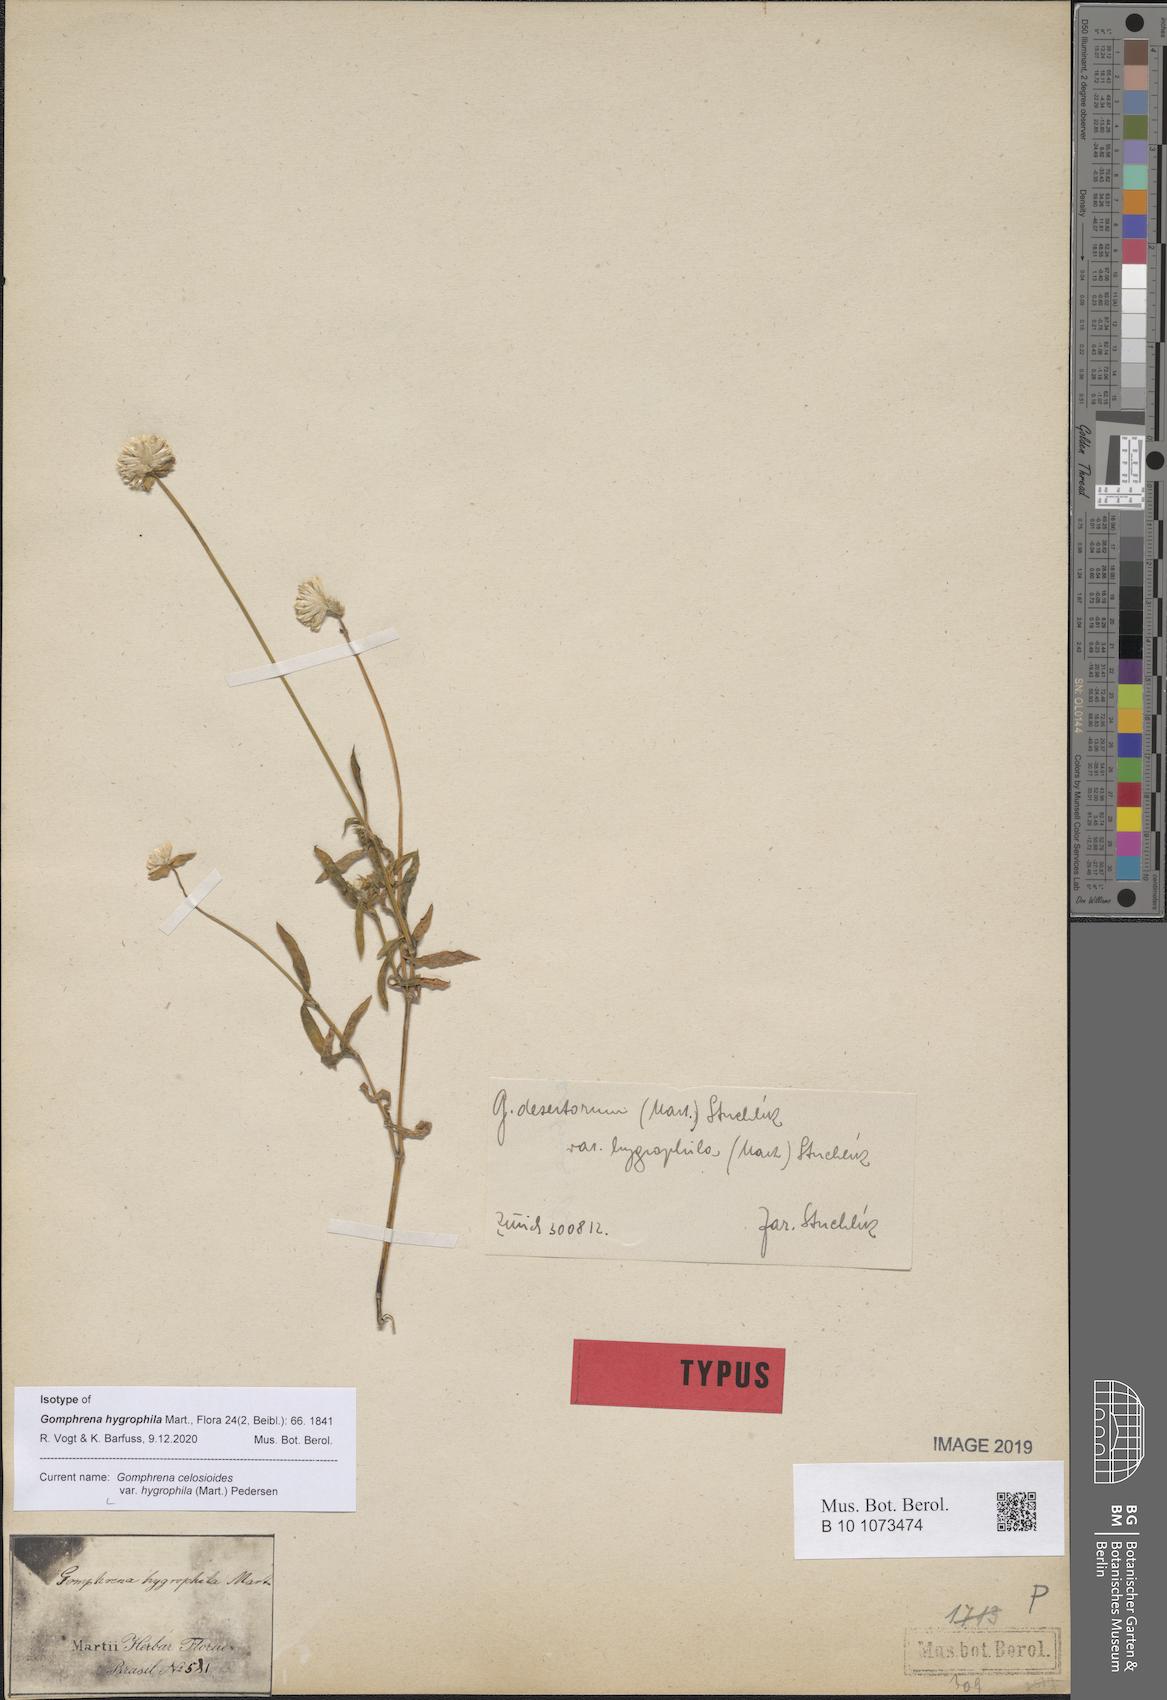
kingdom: Plantae
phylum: Tracheophyta
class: Magnoliopsida
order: Caryophyllales
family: Amaranthaceae
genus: Gomphrena
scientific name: Gomphrena celosioides
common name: Gomphrena-weed
